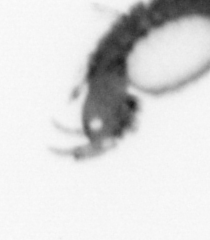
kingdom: Animalia
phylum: Annelida
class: Polychaeta
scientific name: Polychaeta
